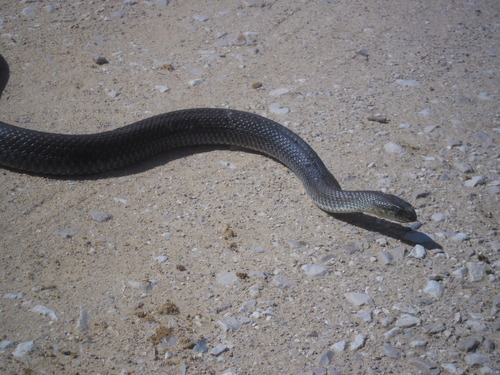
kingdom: Animalia
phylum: Chordata
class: Squamata
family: Psammophiidae
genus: Malpolon
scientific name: Malpolon monspessulanus
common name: Montpellier snake
